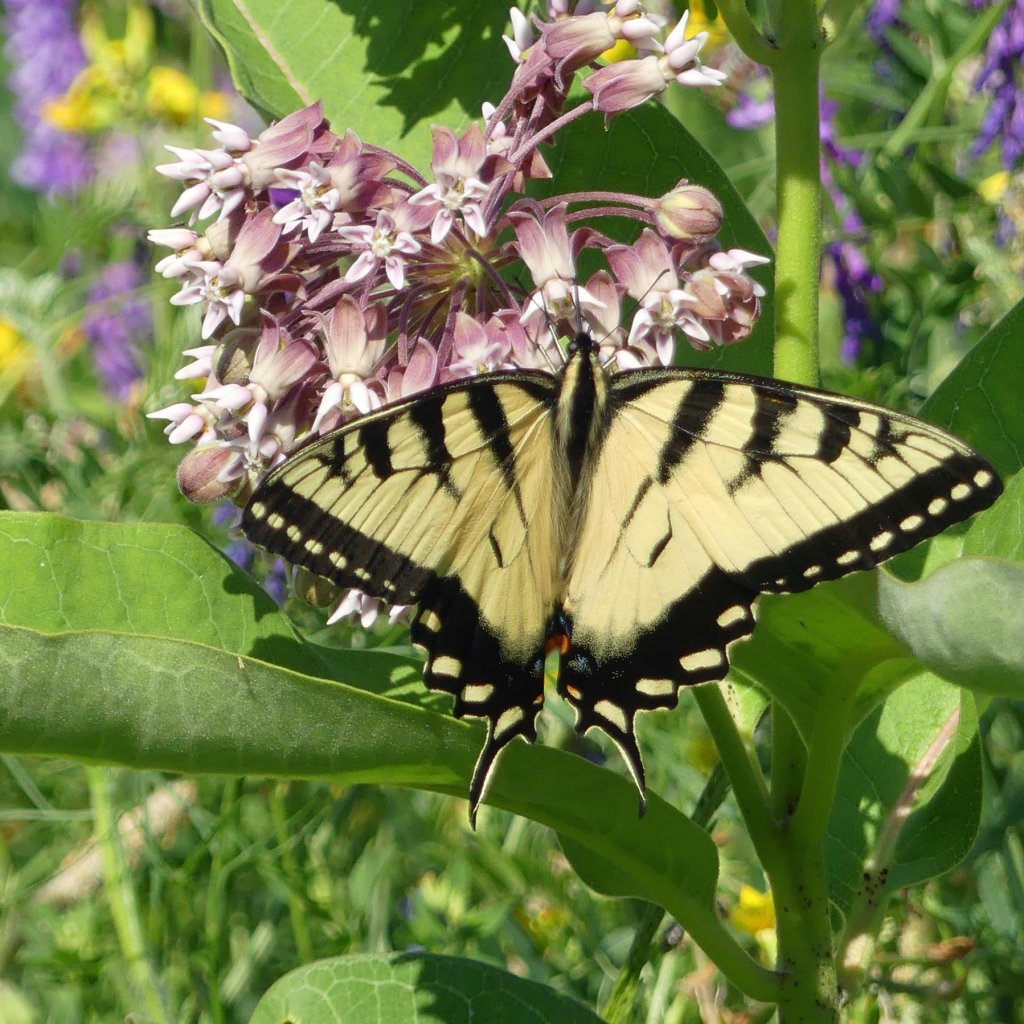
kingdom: Animalia
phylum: Arthropoda
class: Insecta
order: Lepidoptera
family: Papilionidae
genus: Papilio
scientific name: Papilio
